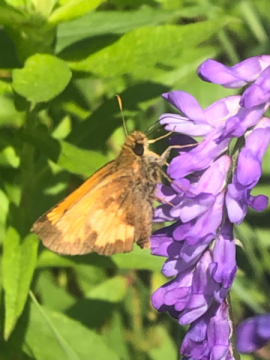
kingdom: Animalia
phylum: Arthropoda
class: Insecta
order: Lepidoptera
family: Hesperiidae
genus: Lon
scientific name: Lon hobomok
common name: Hobomok Skipper
